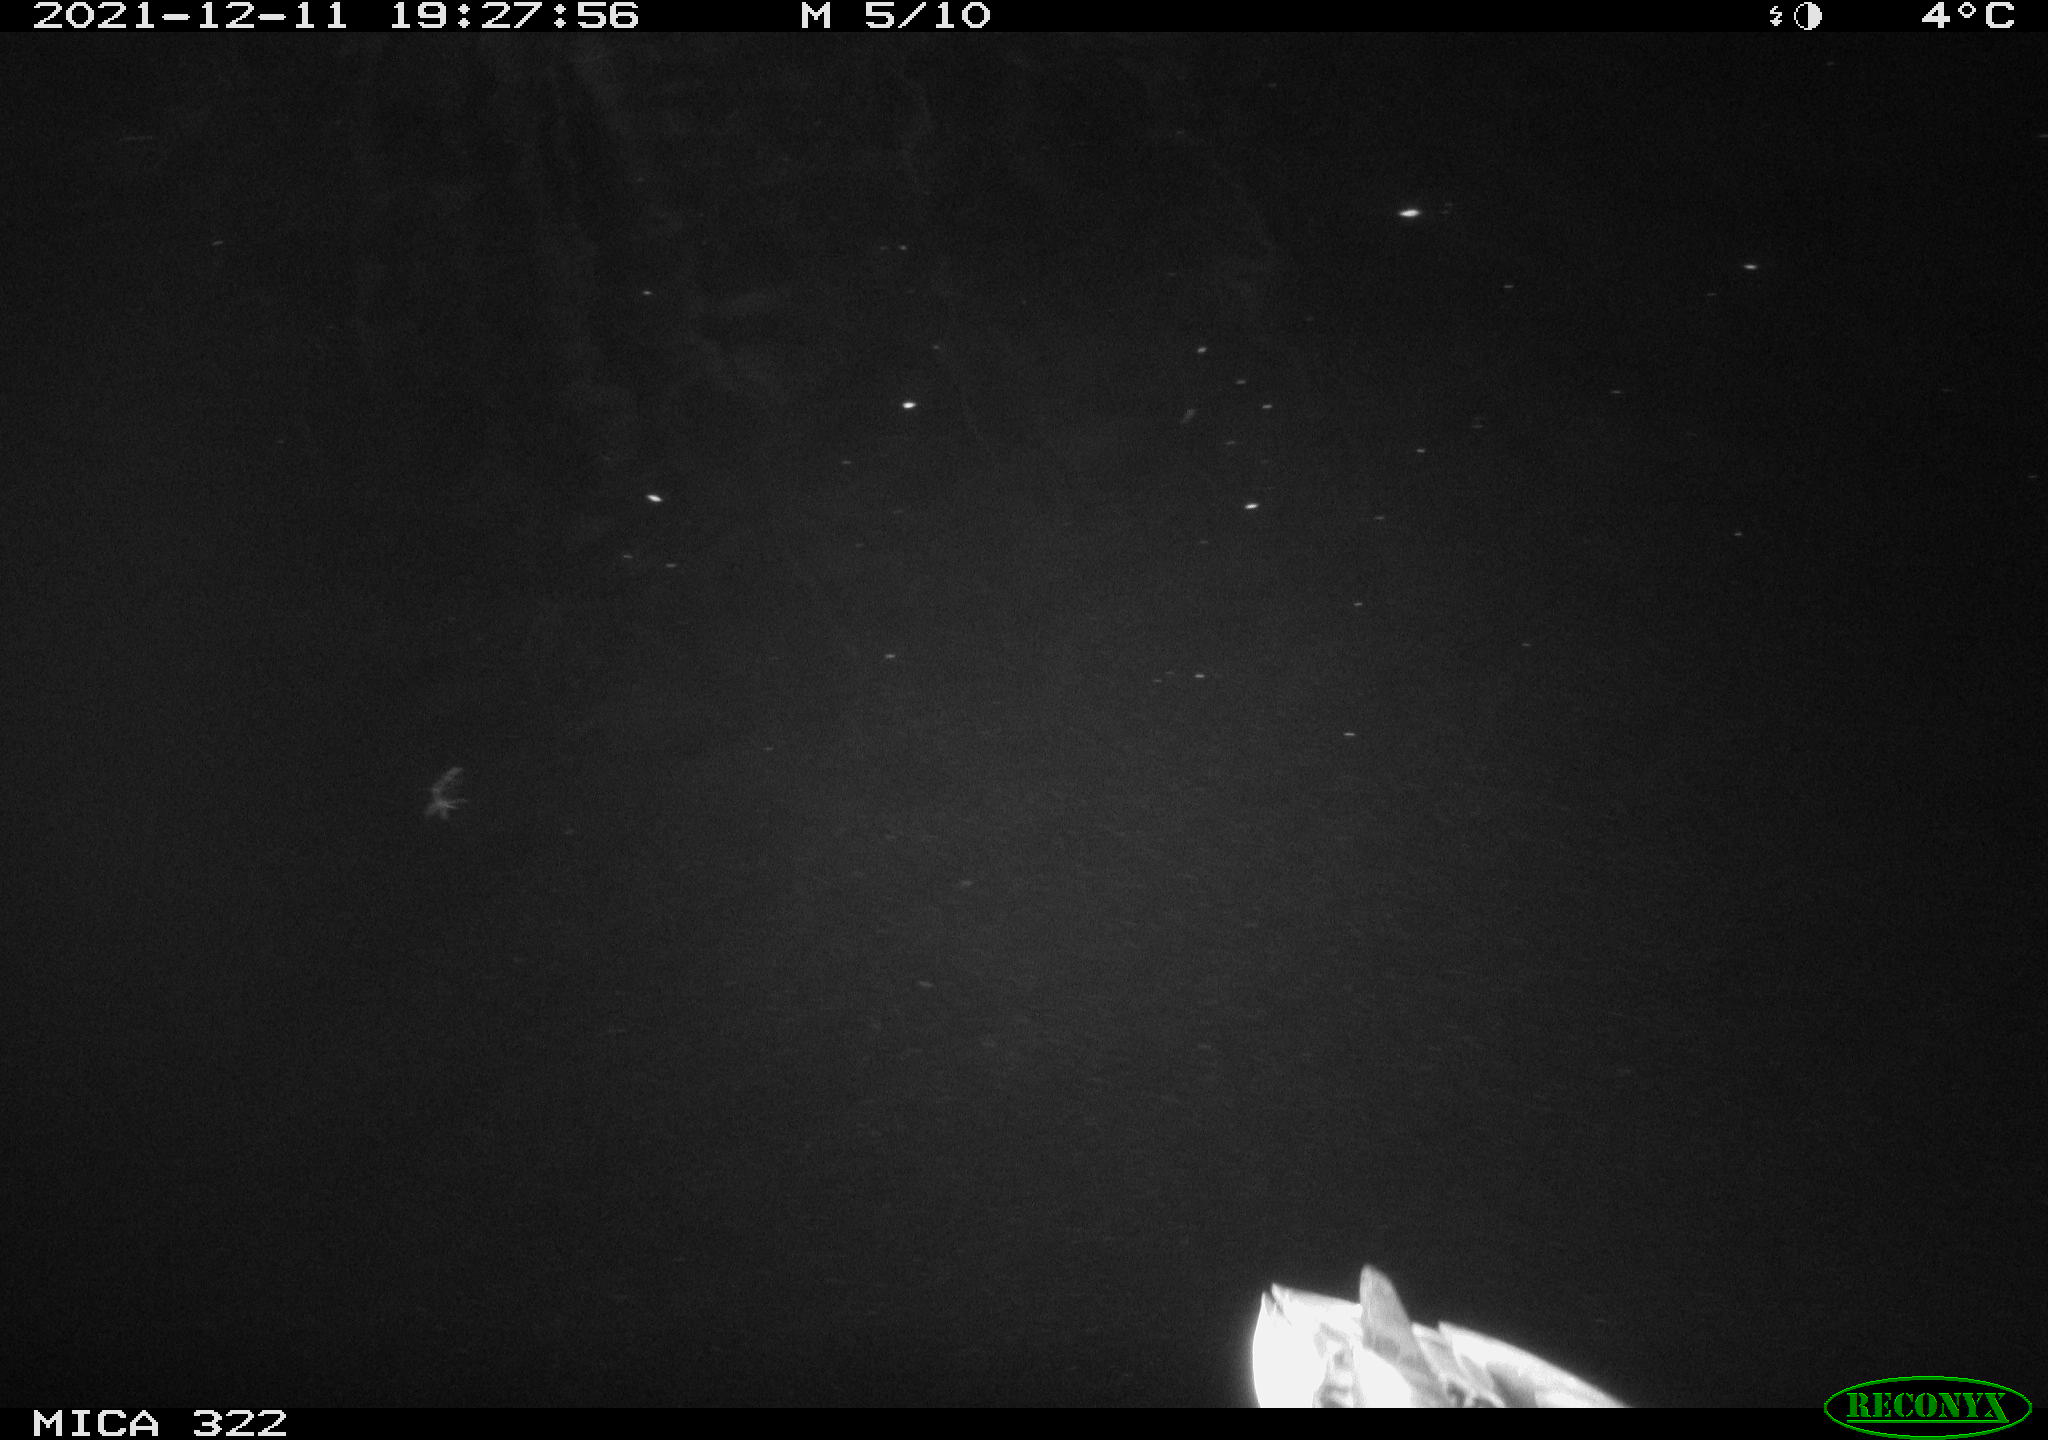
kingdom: Animalia
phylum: Chordata
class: Aves
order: Anseriformes
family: Anatidae
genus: Anas
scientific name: Anas
